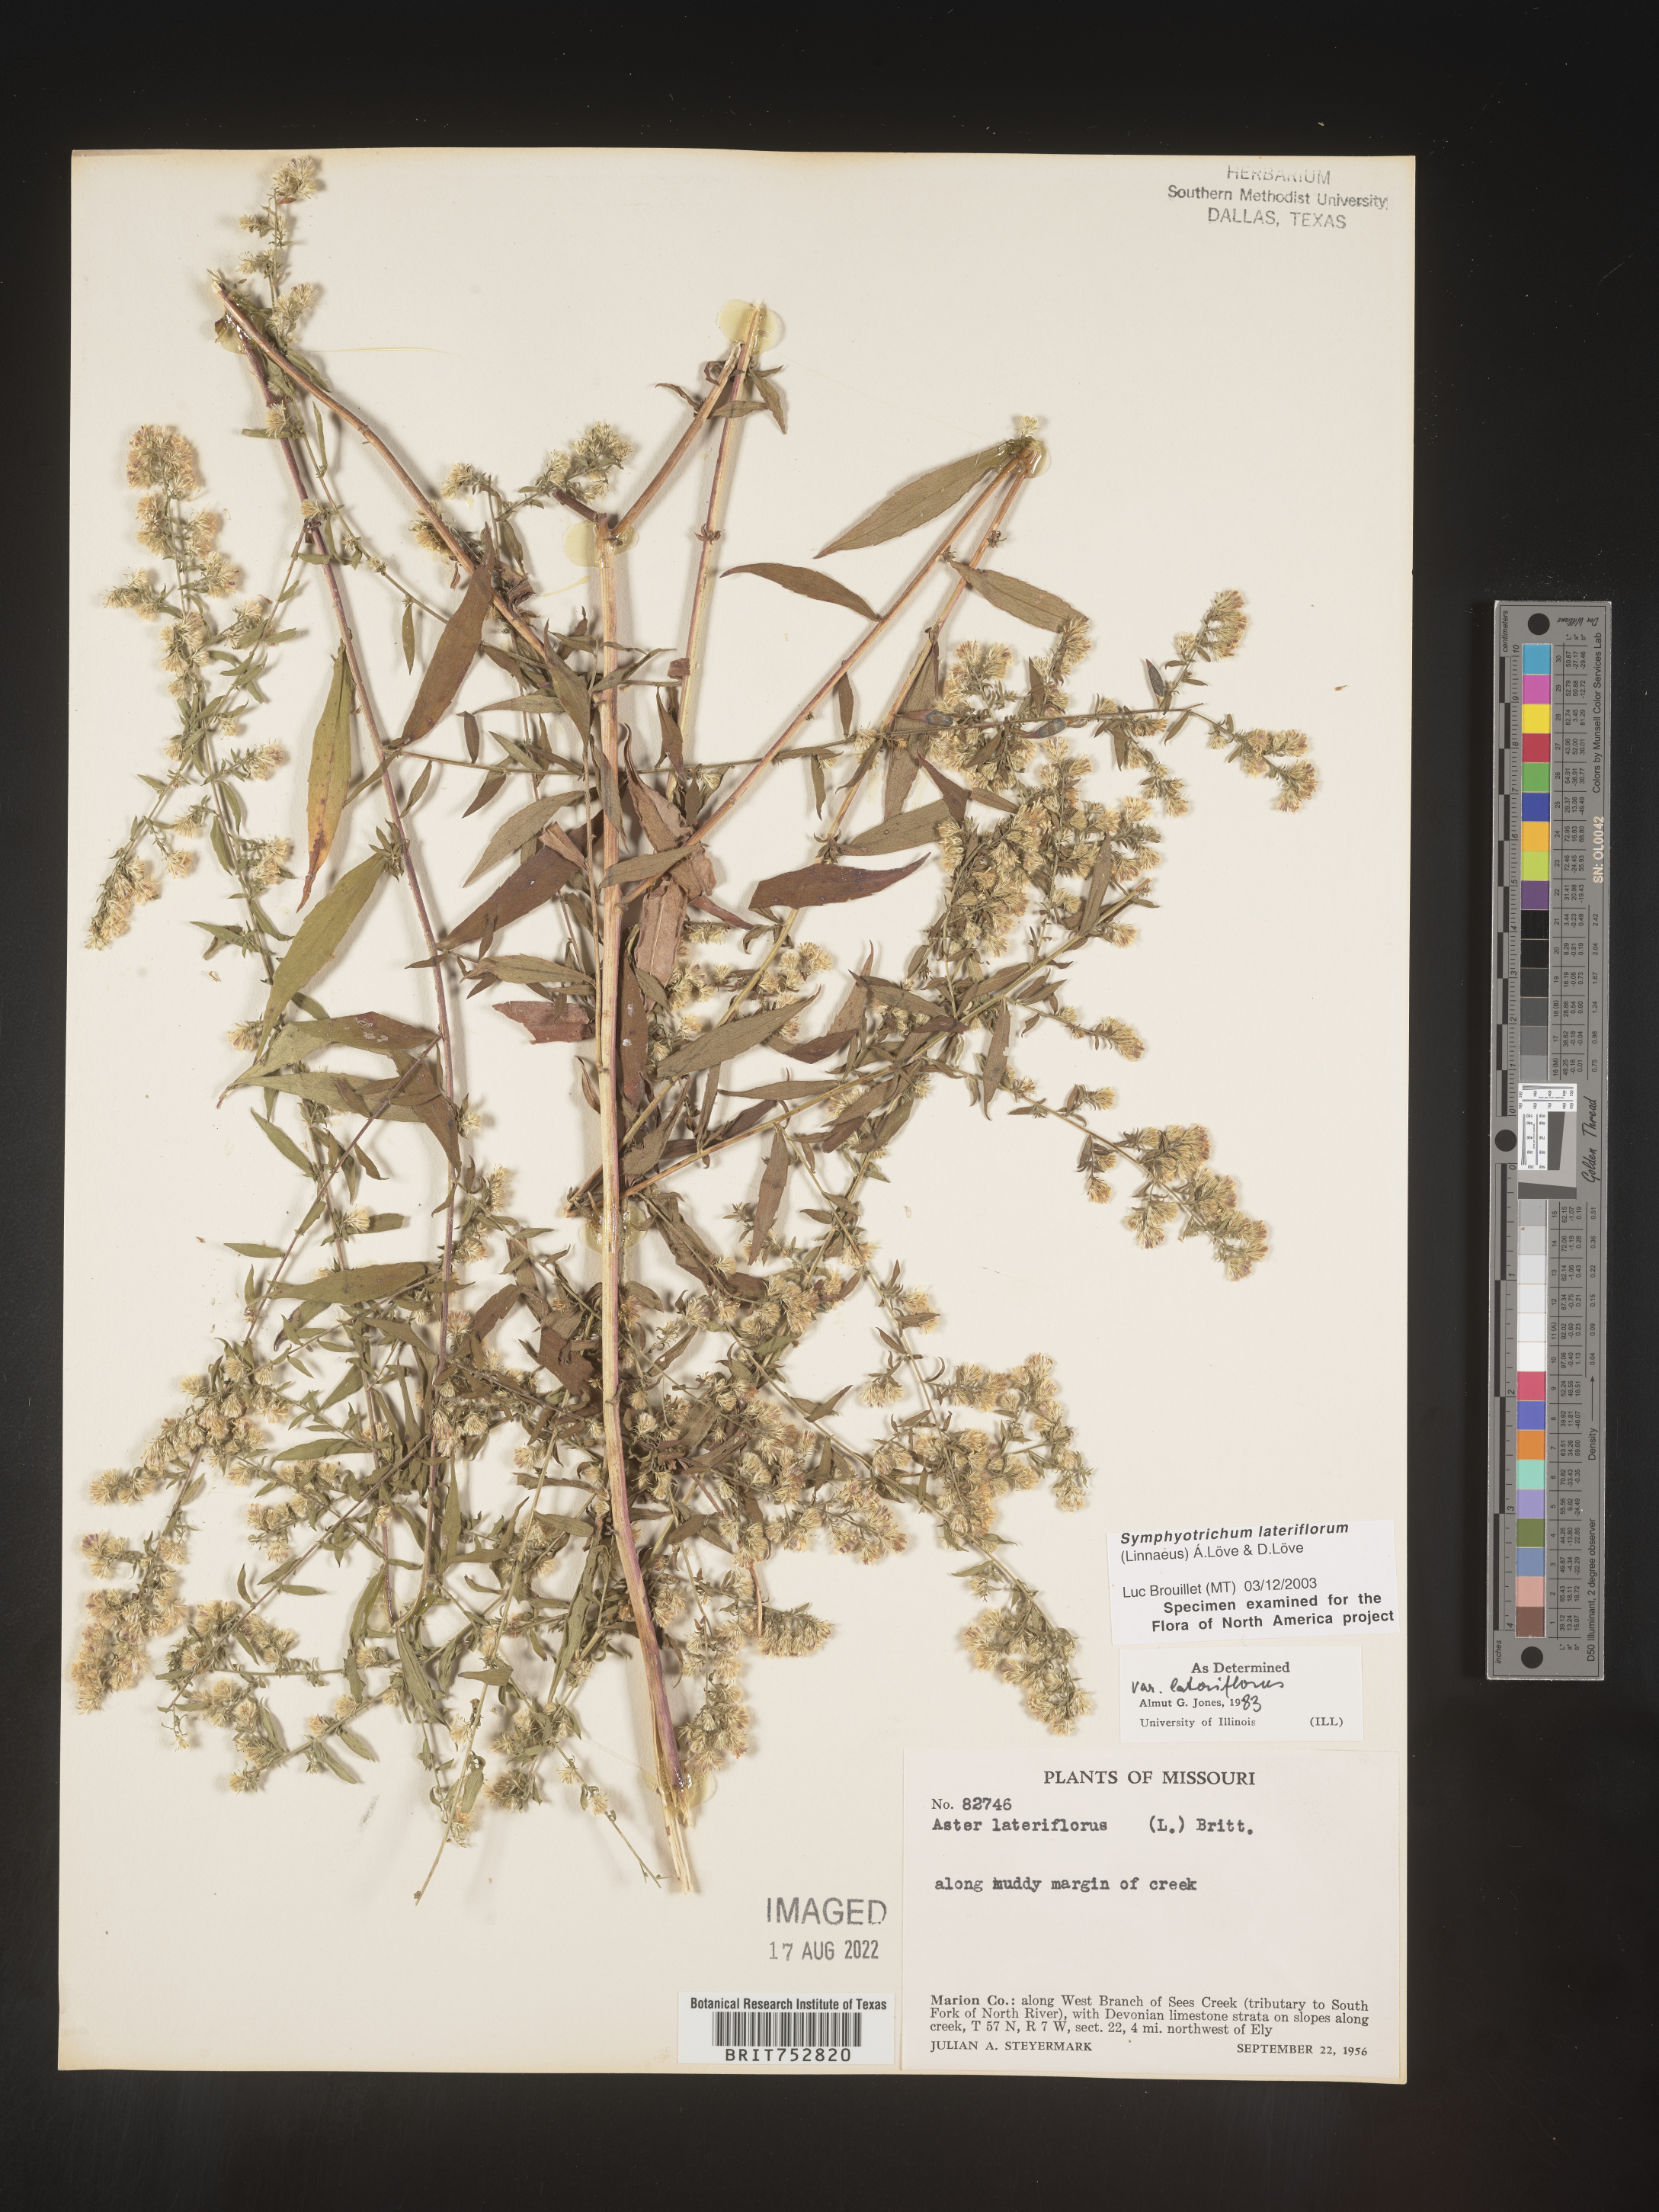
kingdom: Plantae
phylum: Tracheophyta
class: Magnoliopsida
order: Asterales
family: Asteraceae
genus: Symphyotrichum
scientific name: Symphyotrichum lateriflorum
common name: Calico aster
